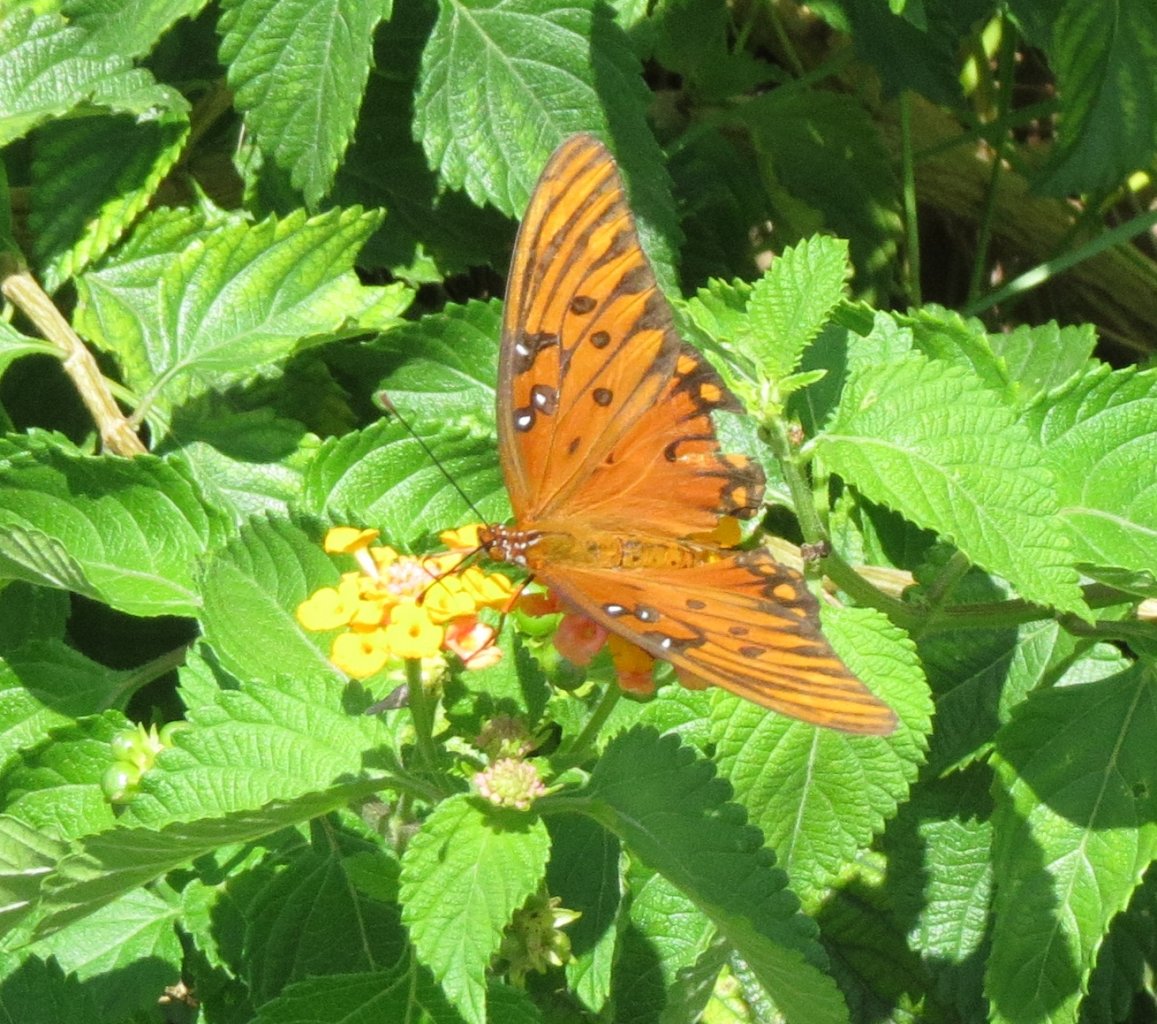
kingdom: Animalia
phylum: Arthropoda
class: Insecta
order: Lepidoptera
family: Nymphalidae
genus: Dione
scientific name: Dione vanillae
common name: Gulf Fritillary
